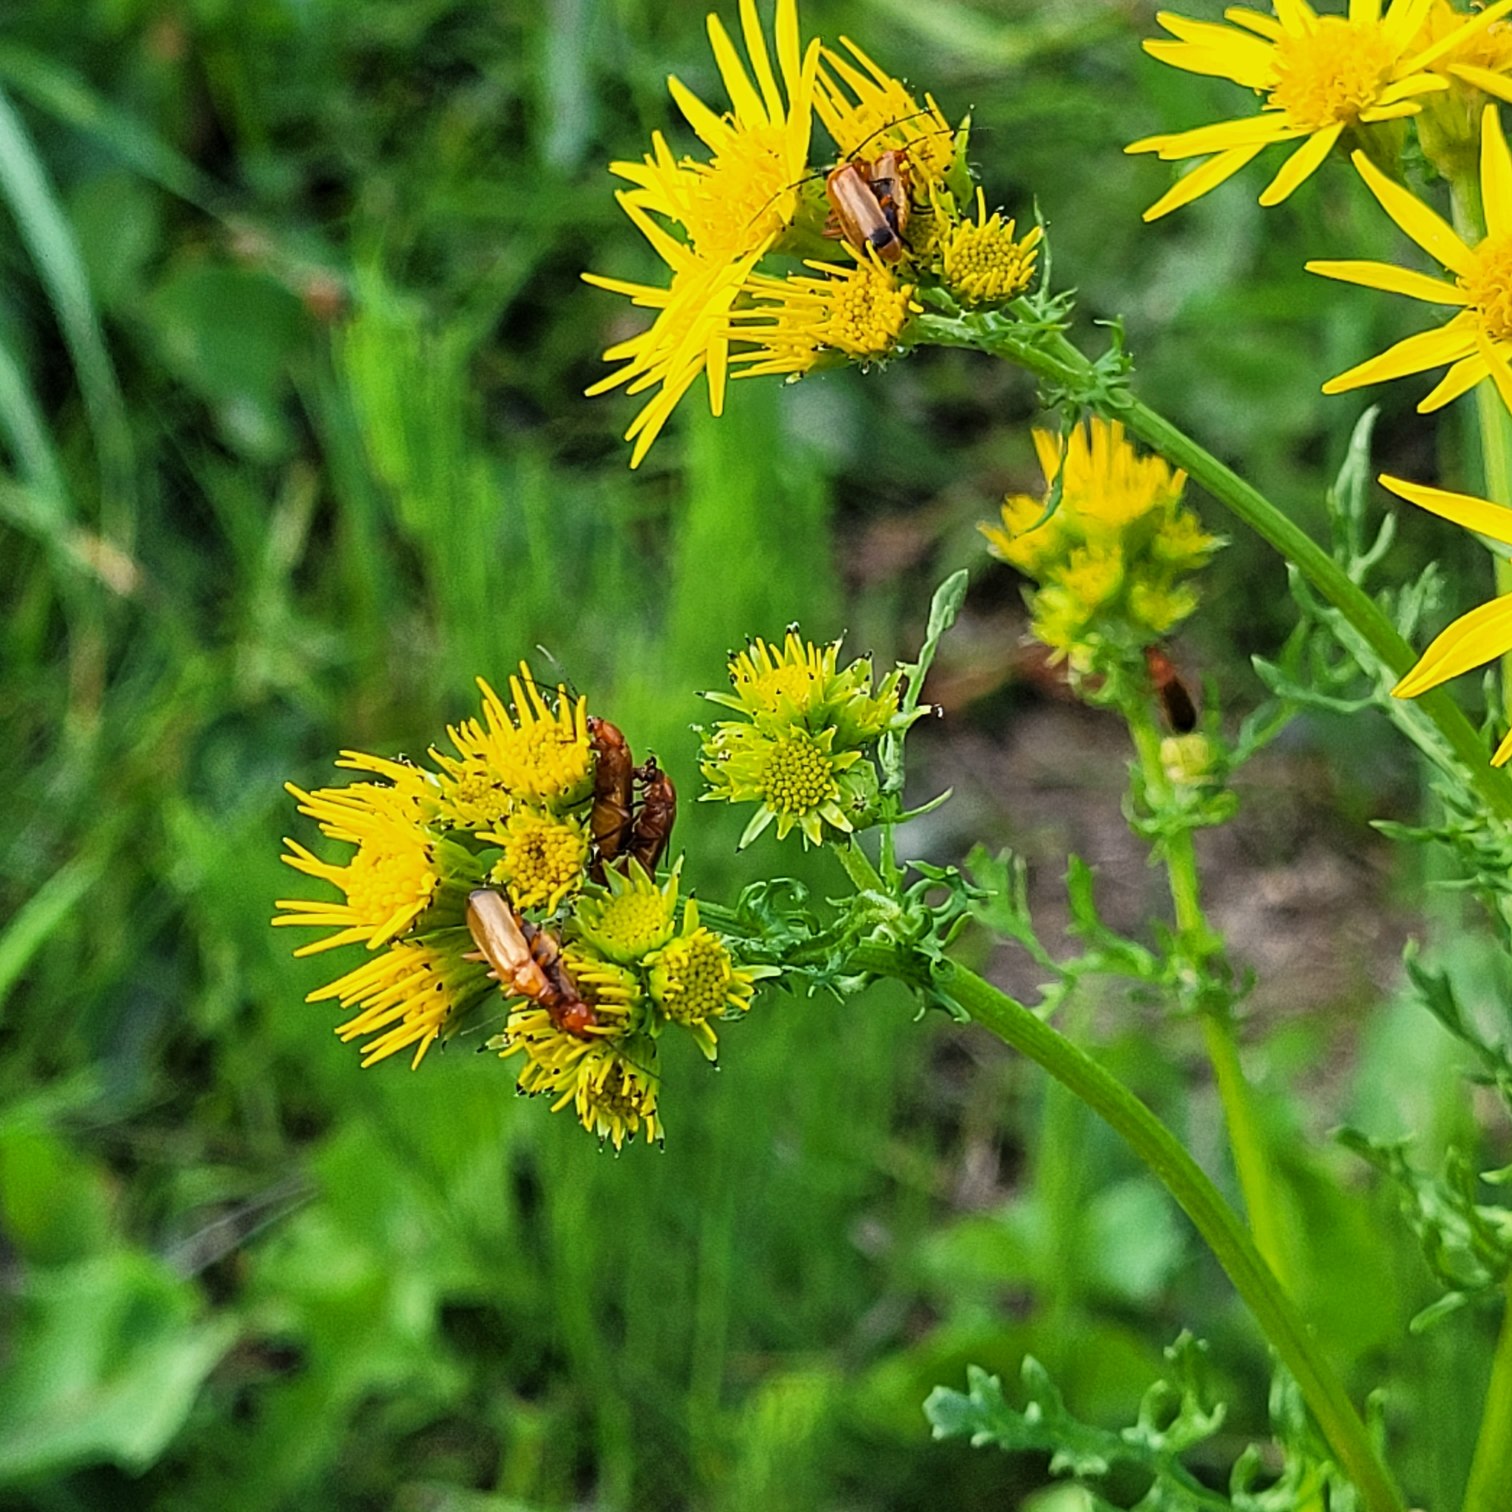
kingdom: Animalia
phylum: Arthropoda
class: Insecta
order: Coleoptera
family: Cantharidae
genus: Rhagonycha
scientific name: Rhagonycha fulva
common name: Præstebille
